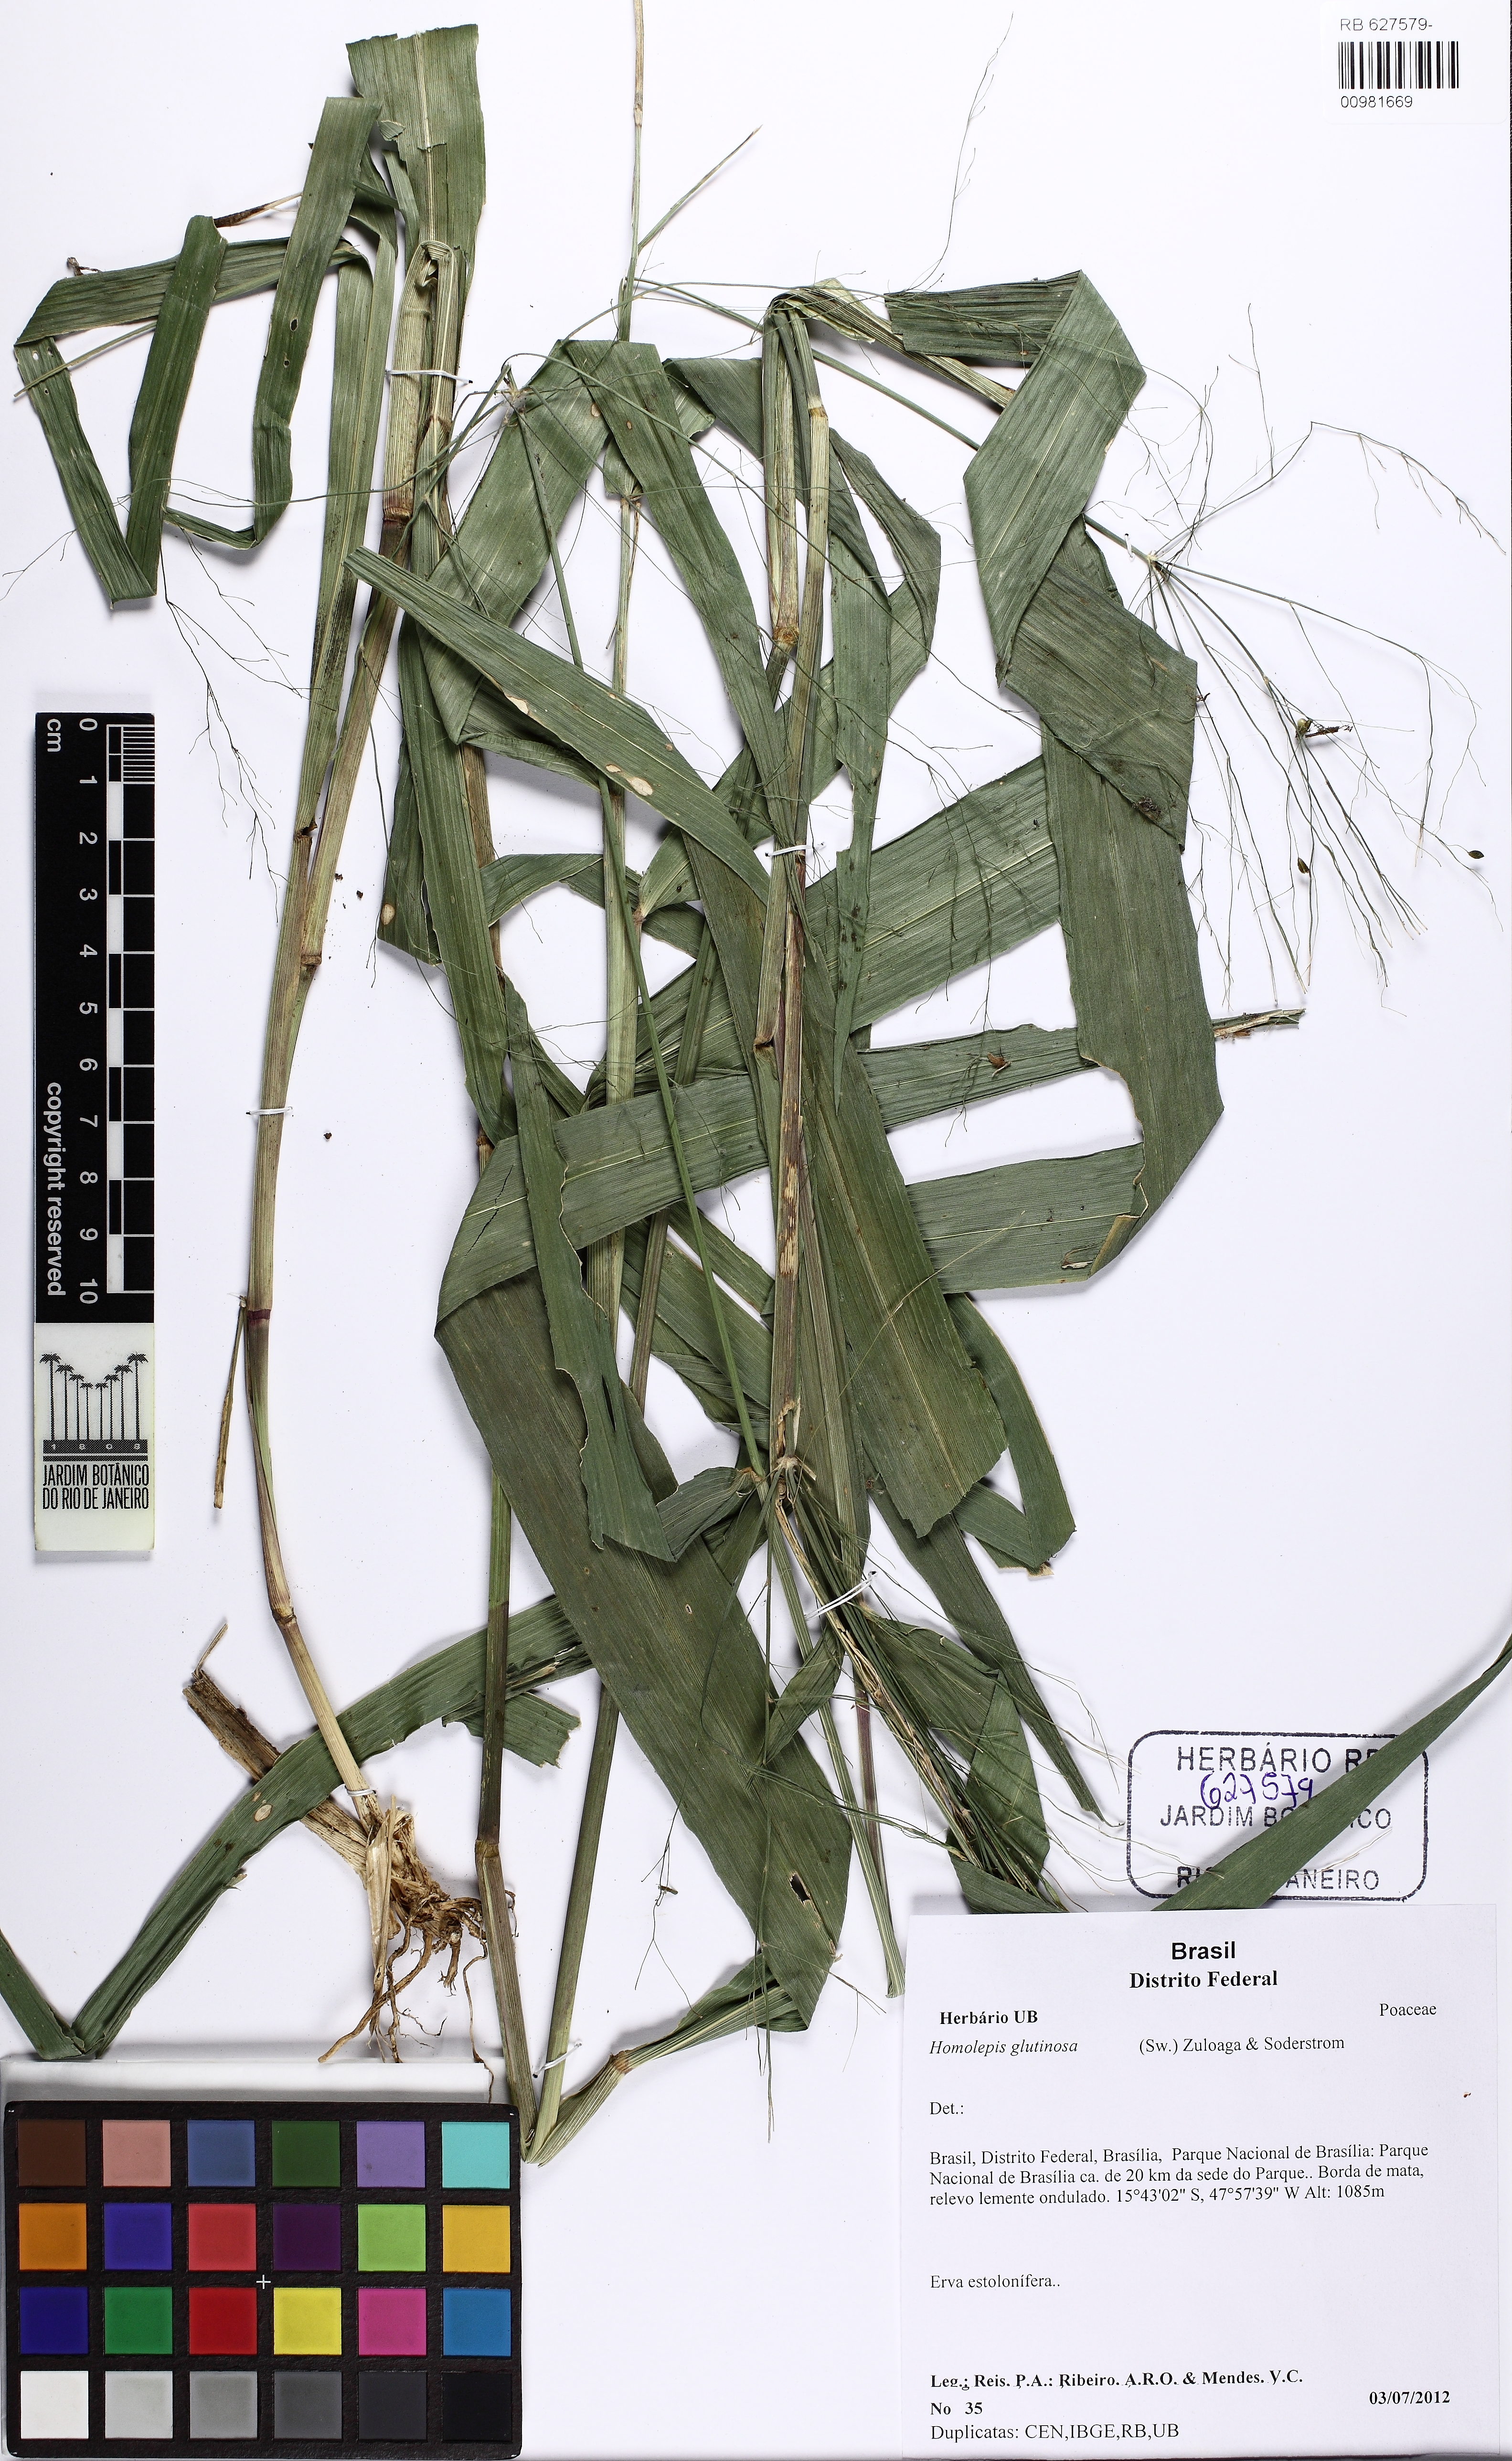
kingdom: Plantae
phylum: Tracheophyta
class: Liliopsida
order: Poales
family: Poaceae
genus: Homolepis
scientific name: Homolepis glutinosa
